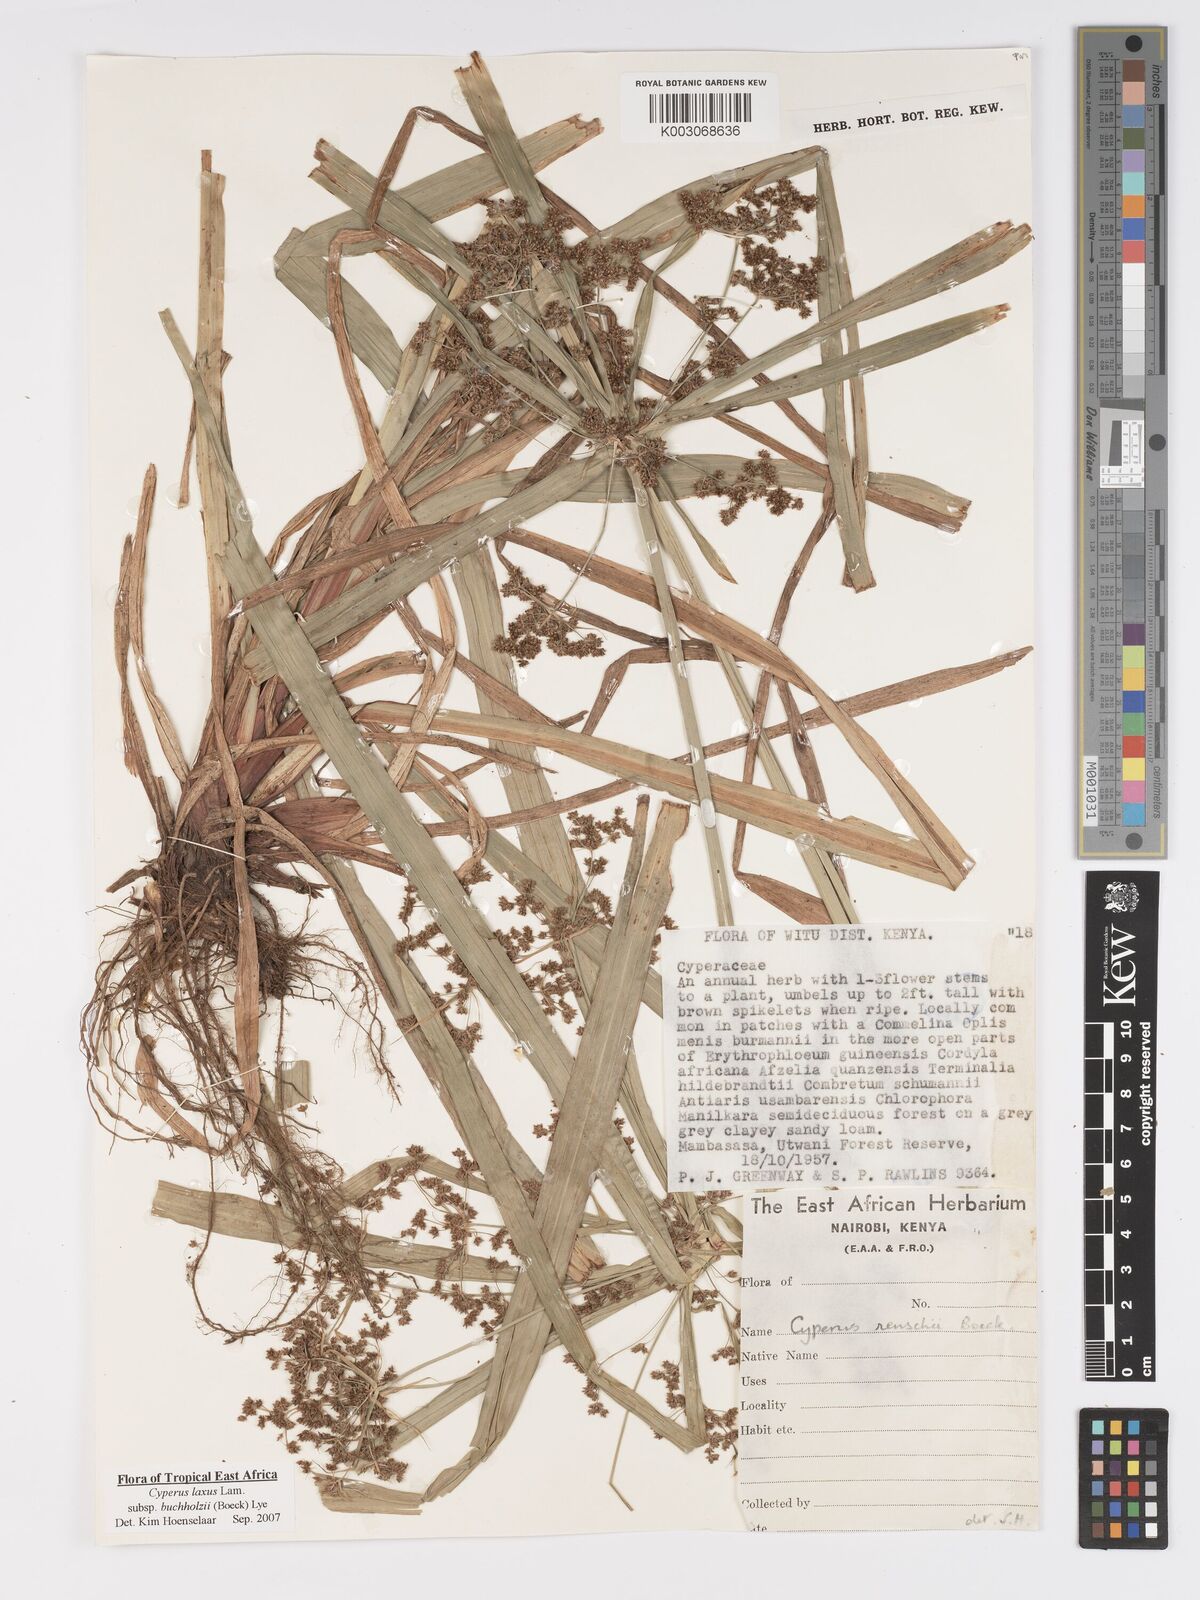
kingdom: Plantae
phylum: Tracheophyta
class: Liliopsida
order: Poales
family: Cyperaceae
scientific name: Cyperaceae
